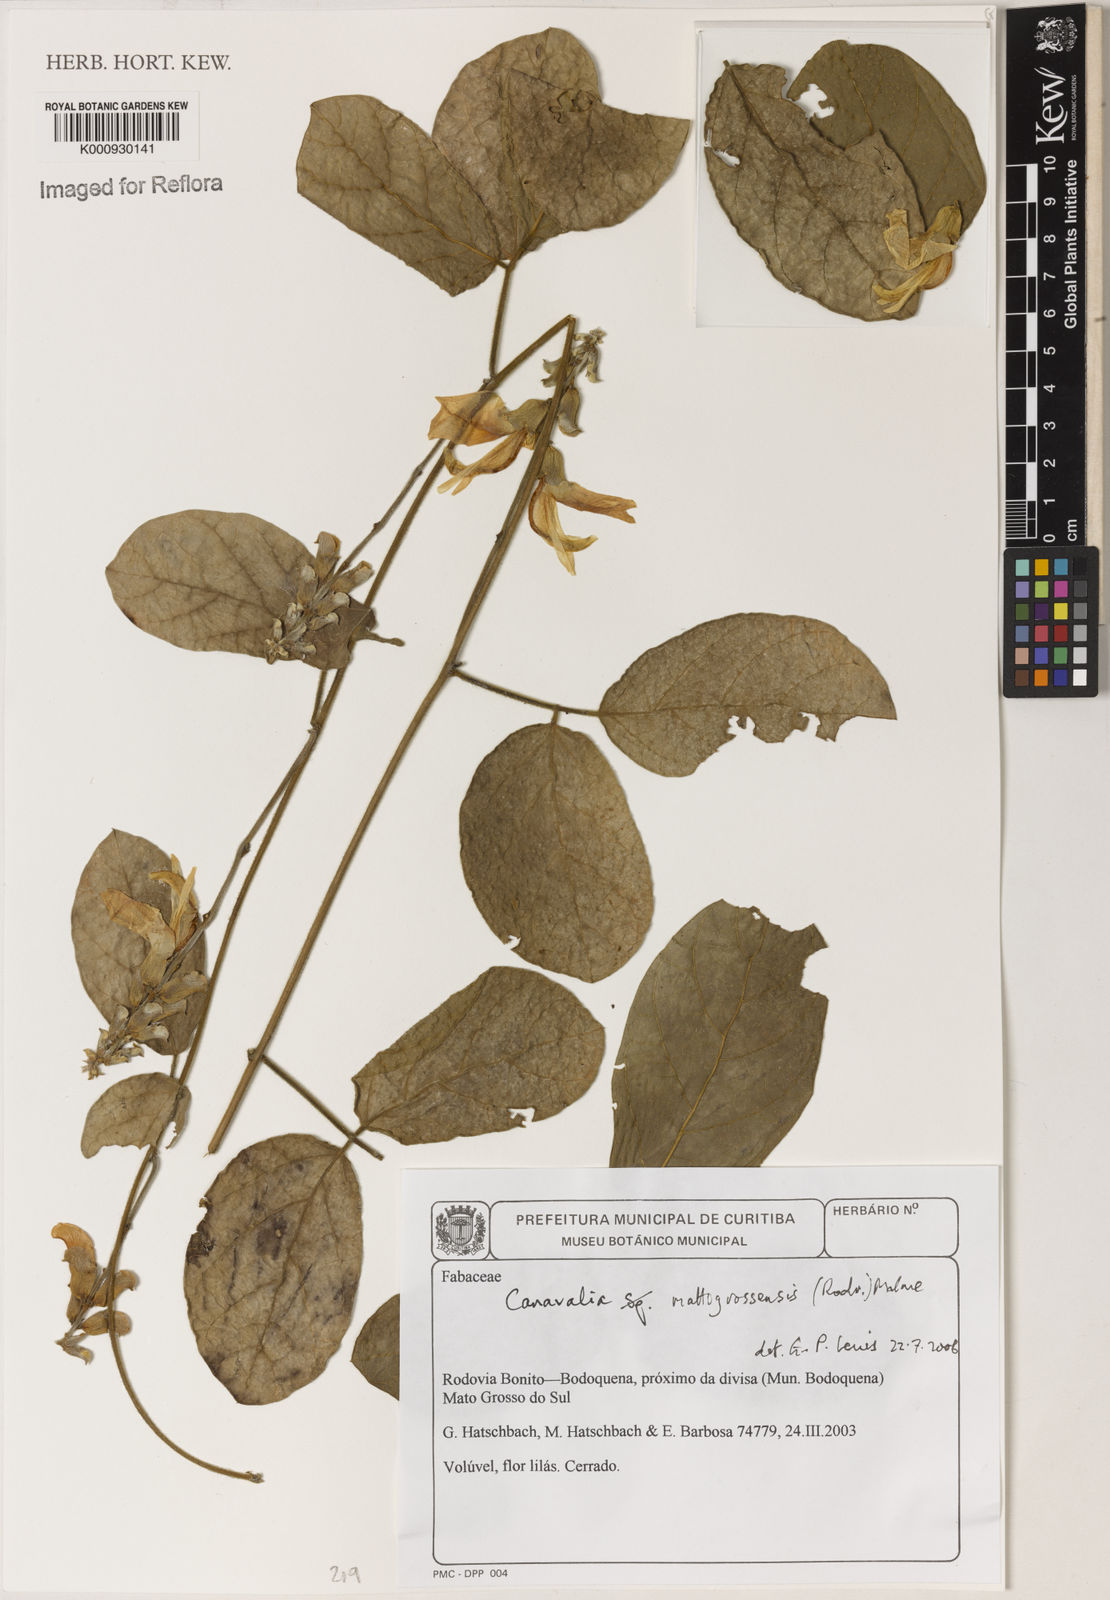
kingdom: Plantae
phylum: Tracheophyta
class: Magnoliopsida
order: Fabales
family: Fabaceae
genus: Canavalia
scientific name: Canavalia mattogrossensis
